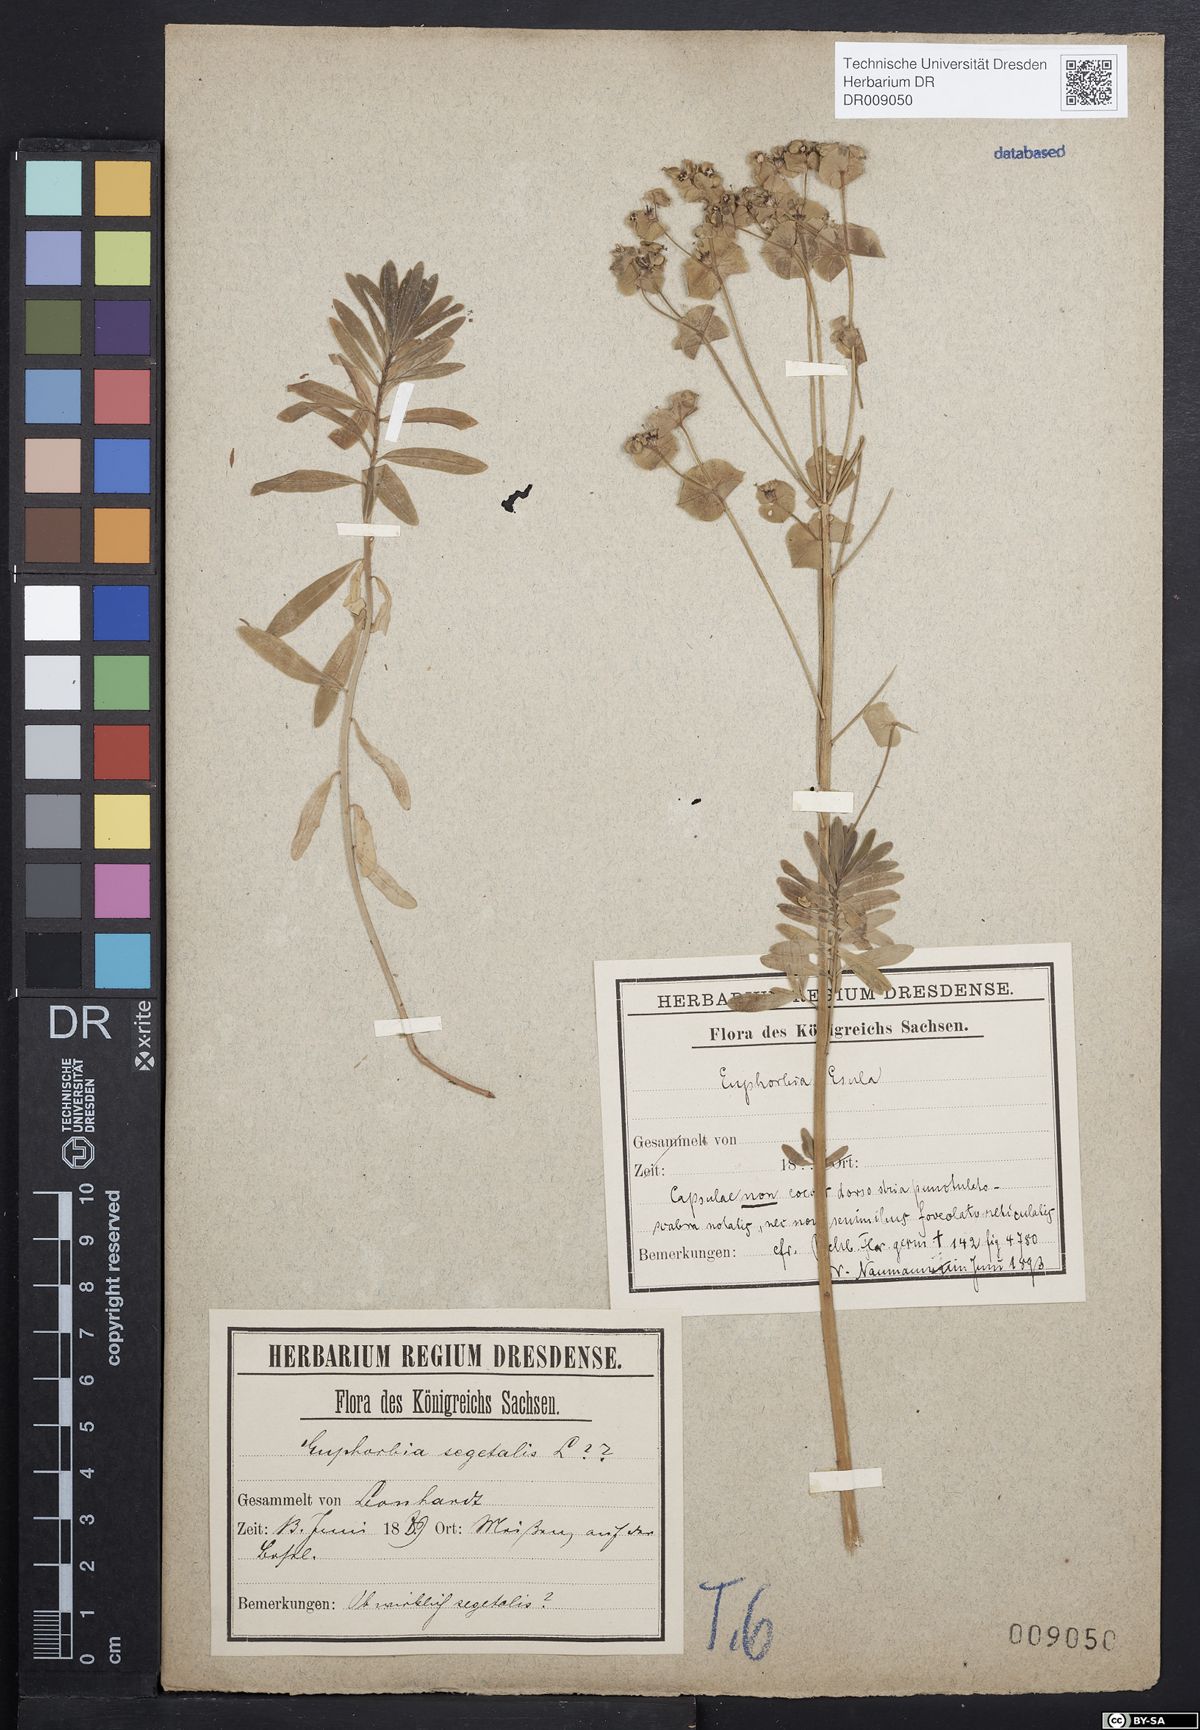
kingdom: Plantae
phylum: Tracheophyta
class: Magnoliopsida
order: Malpighiales
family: Euphorbiaceae
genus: Euphorbia
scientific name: Euphorbia esula
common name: Leafy spurge
